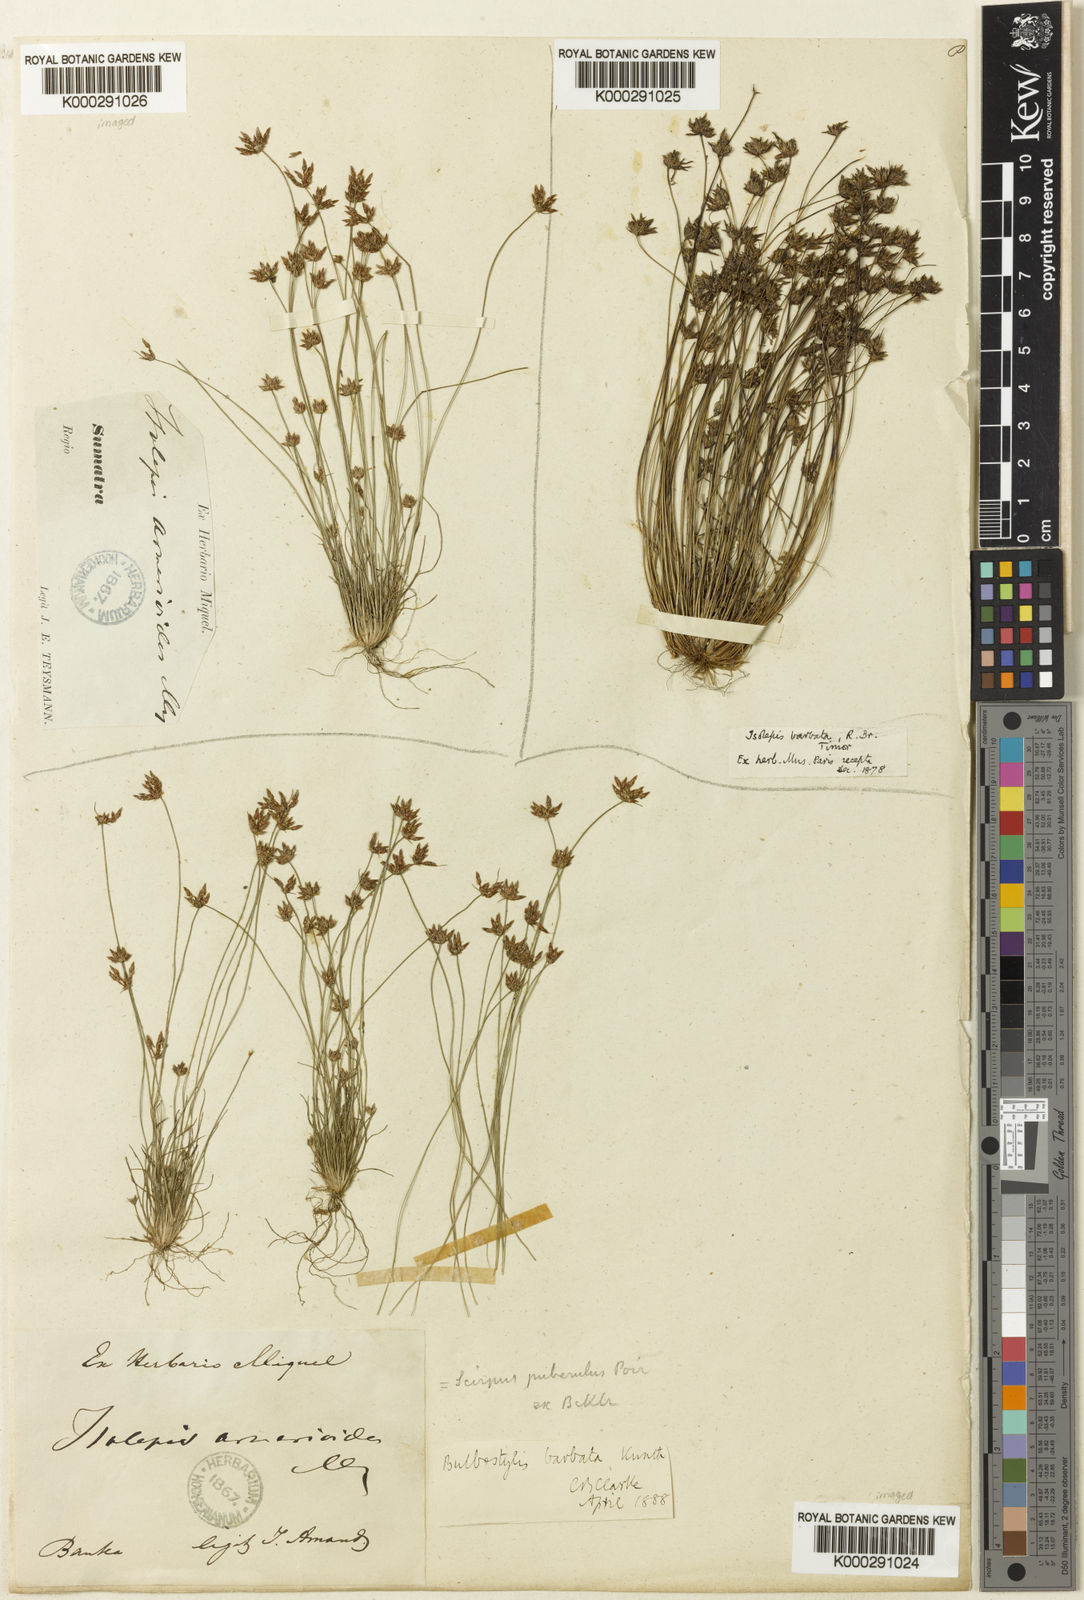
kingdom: Plantae
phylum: Tracheophyta
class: Liliopsida
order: Poales
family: Cyperaceae
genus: Bulbostylis
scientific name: Bulbostylis barbata
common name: Watergrass
